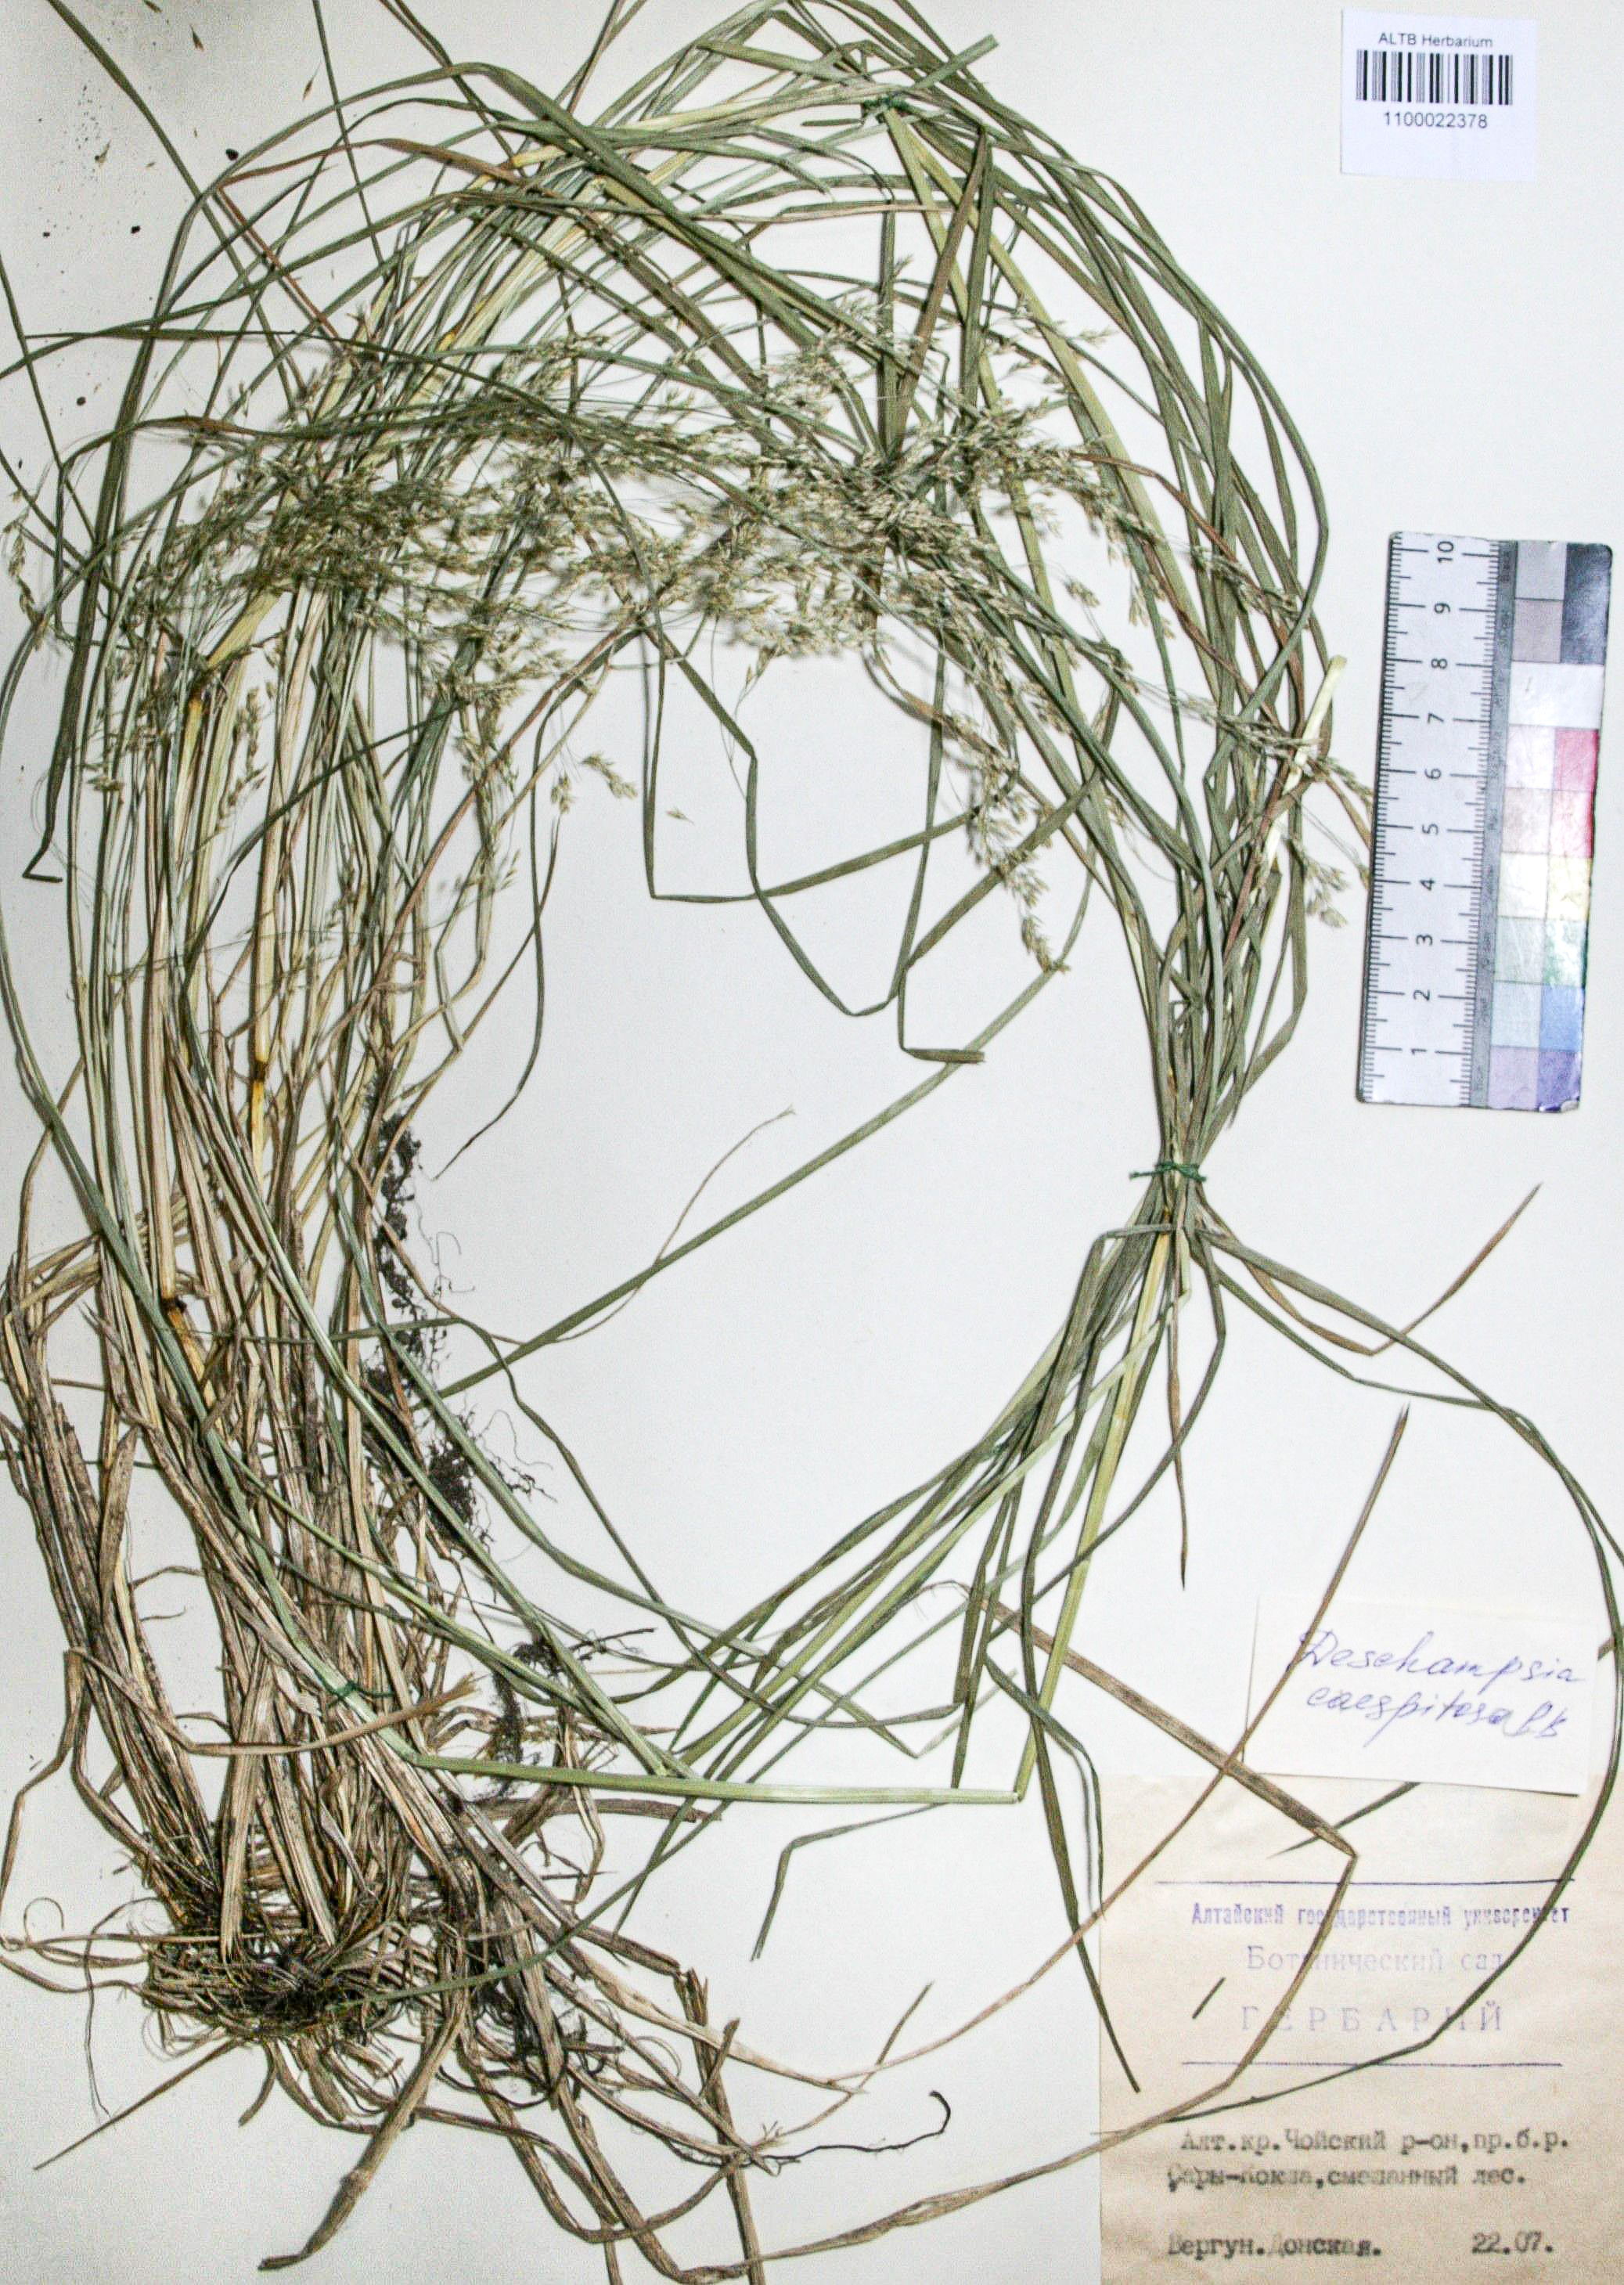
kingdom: Plantae
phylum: Tracheophyta
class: Liliopsida
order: Poales
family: Poaceae
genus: Deschampsia
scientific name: Deschampsia cespitosa
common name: Tufted hair-grass
